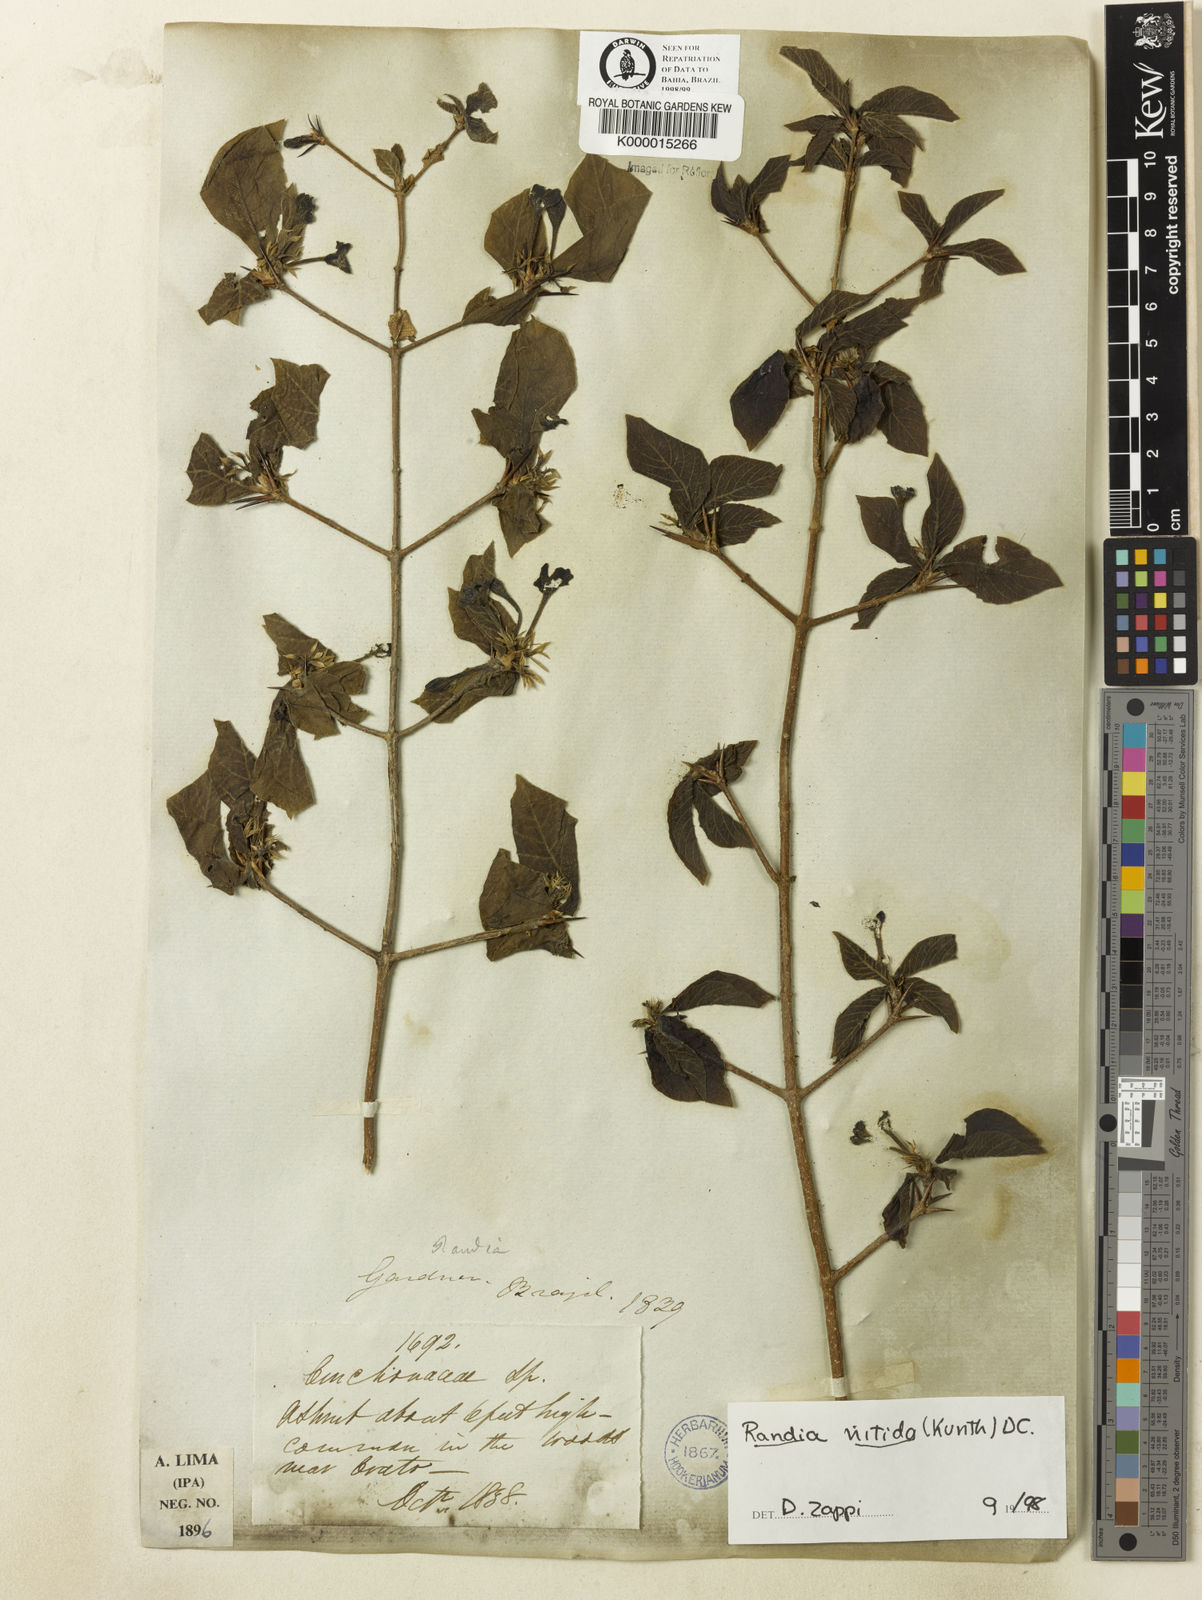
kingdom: Plantae
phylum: Tracheophyta
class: Magnoliopsida
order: Gentianales
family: Rubiaceae
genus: Randia
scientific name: Randia nitida
